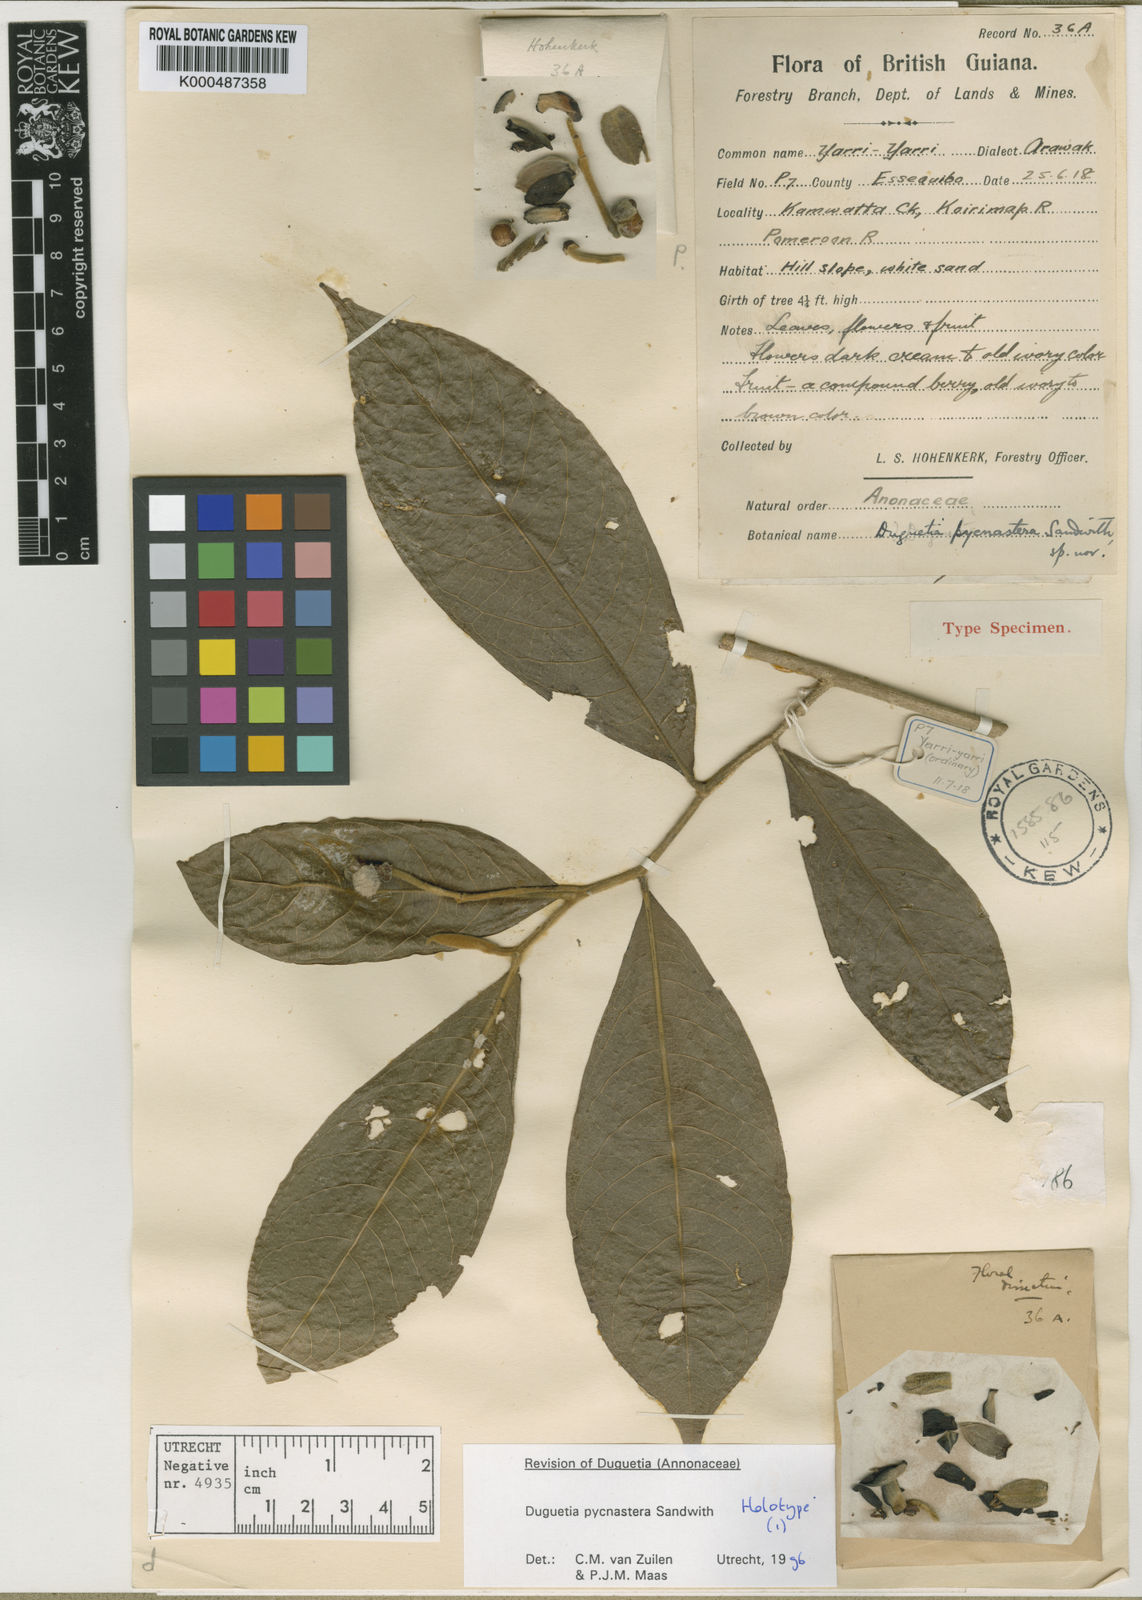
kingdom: Plantae
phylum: Tracheophyta
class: Magnoliopsida
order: Magnoliales
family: Annonaceae
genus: Duguetia
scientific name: Duguetia pycnastera
